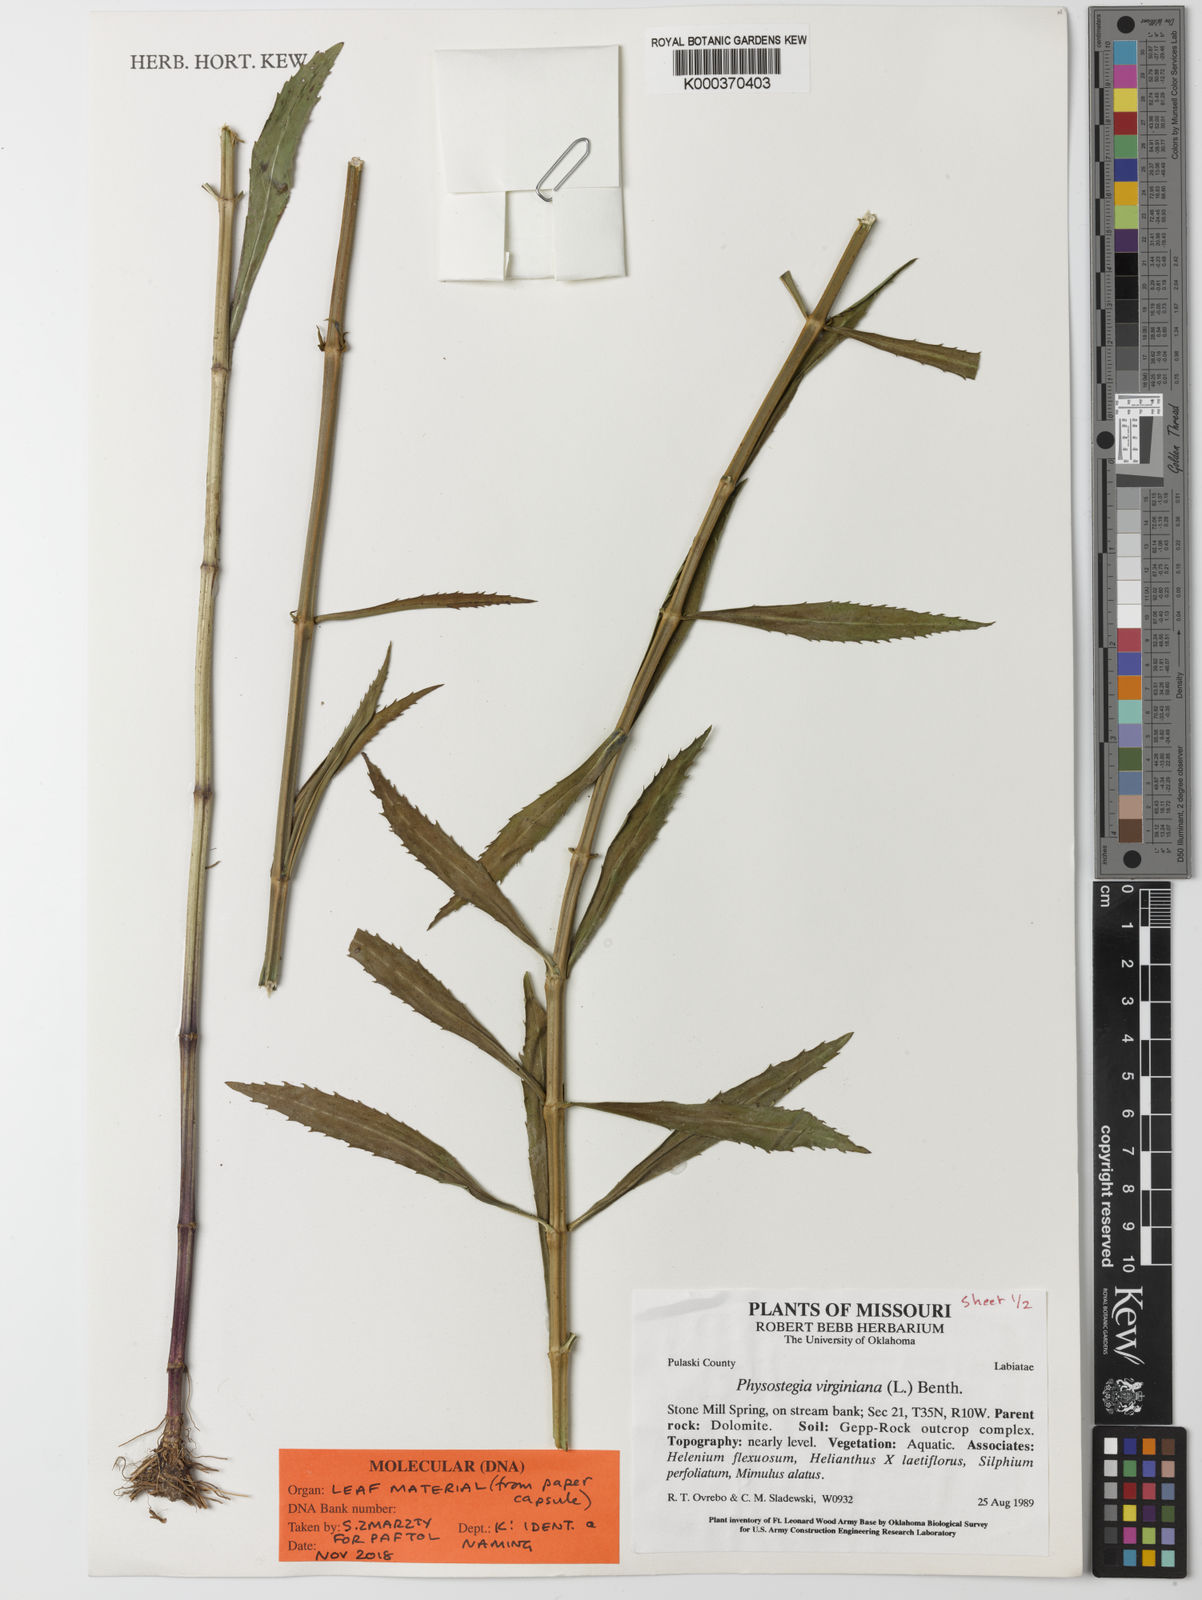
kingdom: Plantae
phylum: Tracheophyta
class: Magnoliopsida
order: Lamiales
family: Lamiaceae
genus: Physostegia
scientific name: Physostegia virginiana
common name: Obedient-plant
